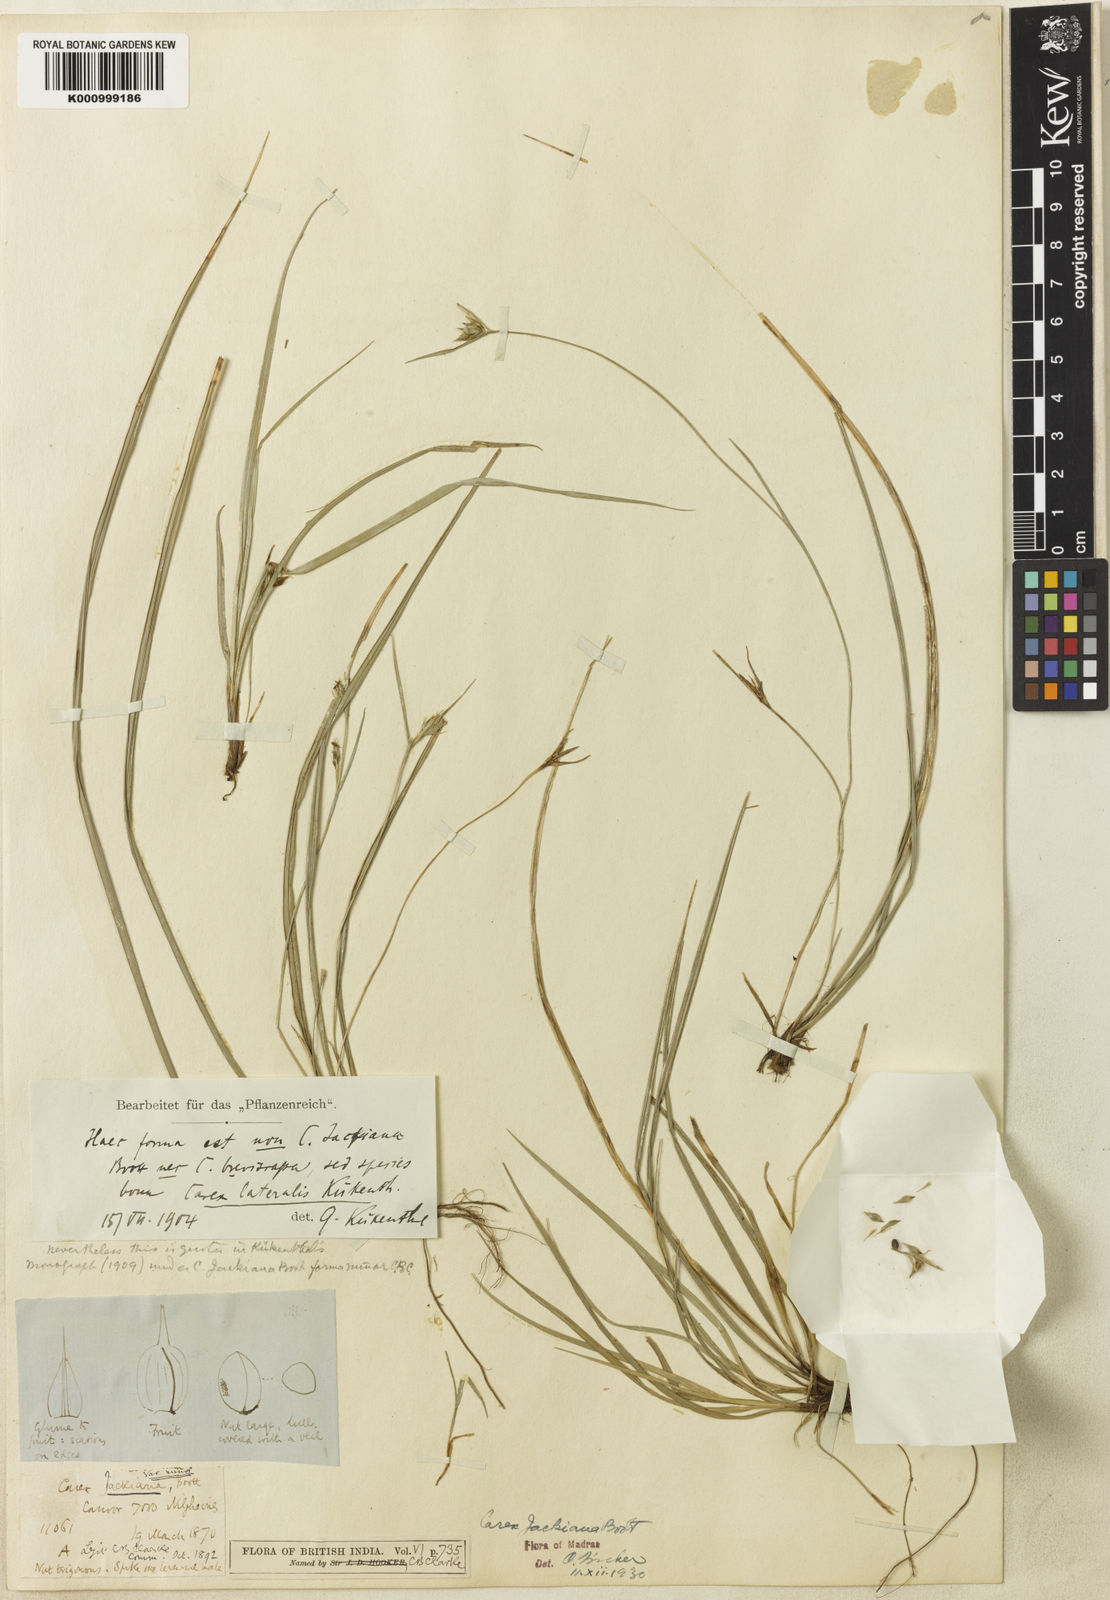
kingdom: Plantae
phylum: Tracheophyta
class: Liliopsida
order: Poales
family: Cyperaceae
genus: Carex
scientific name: Carex
